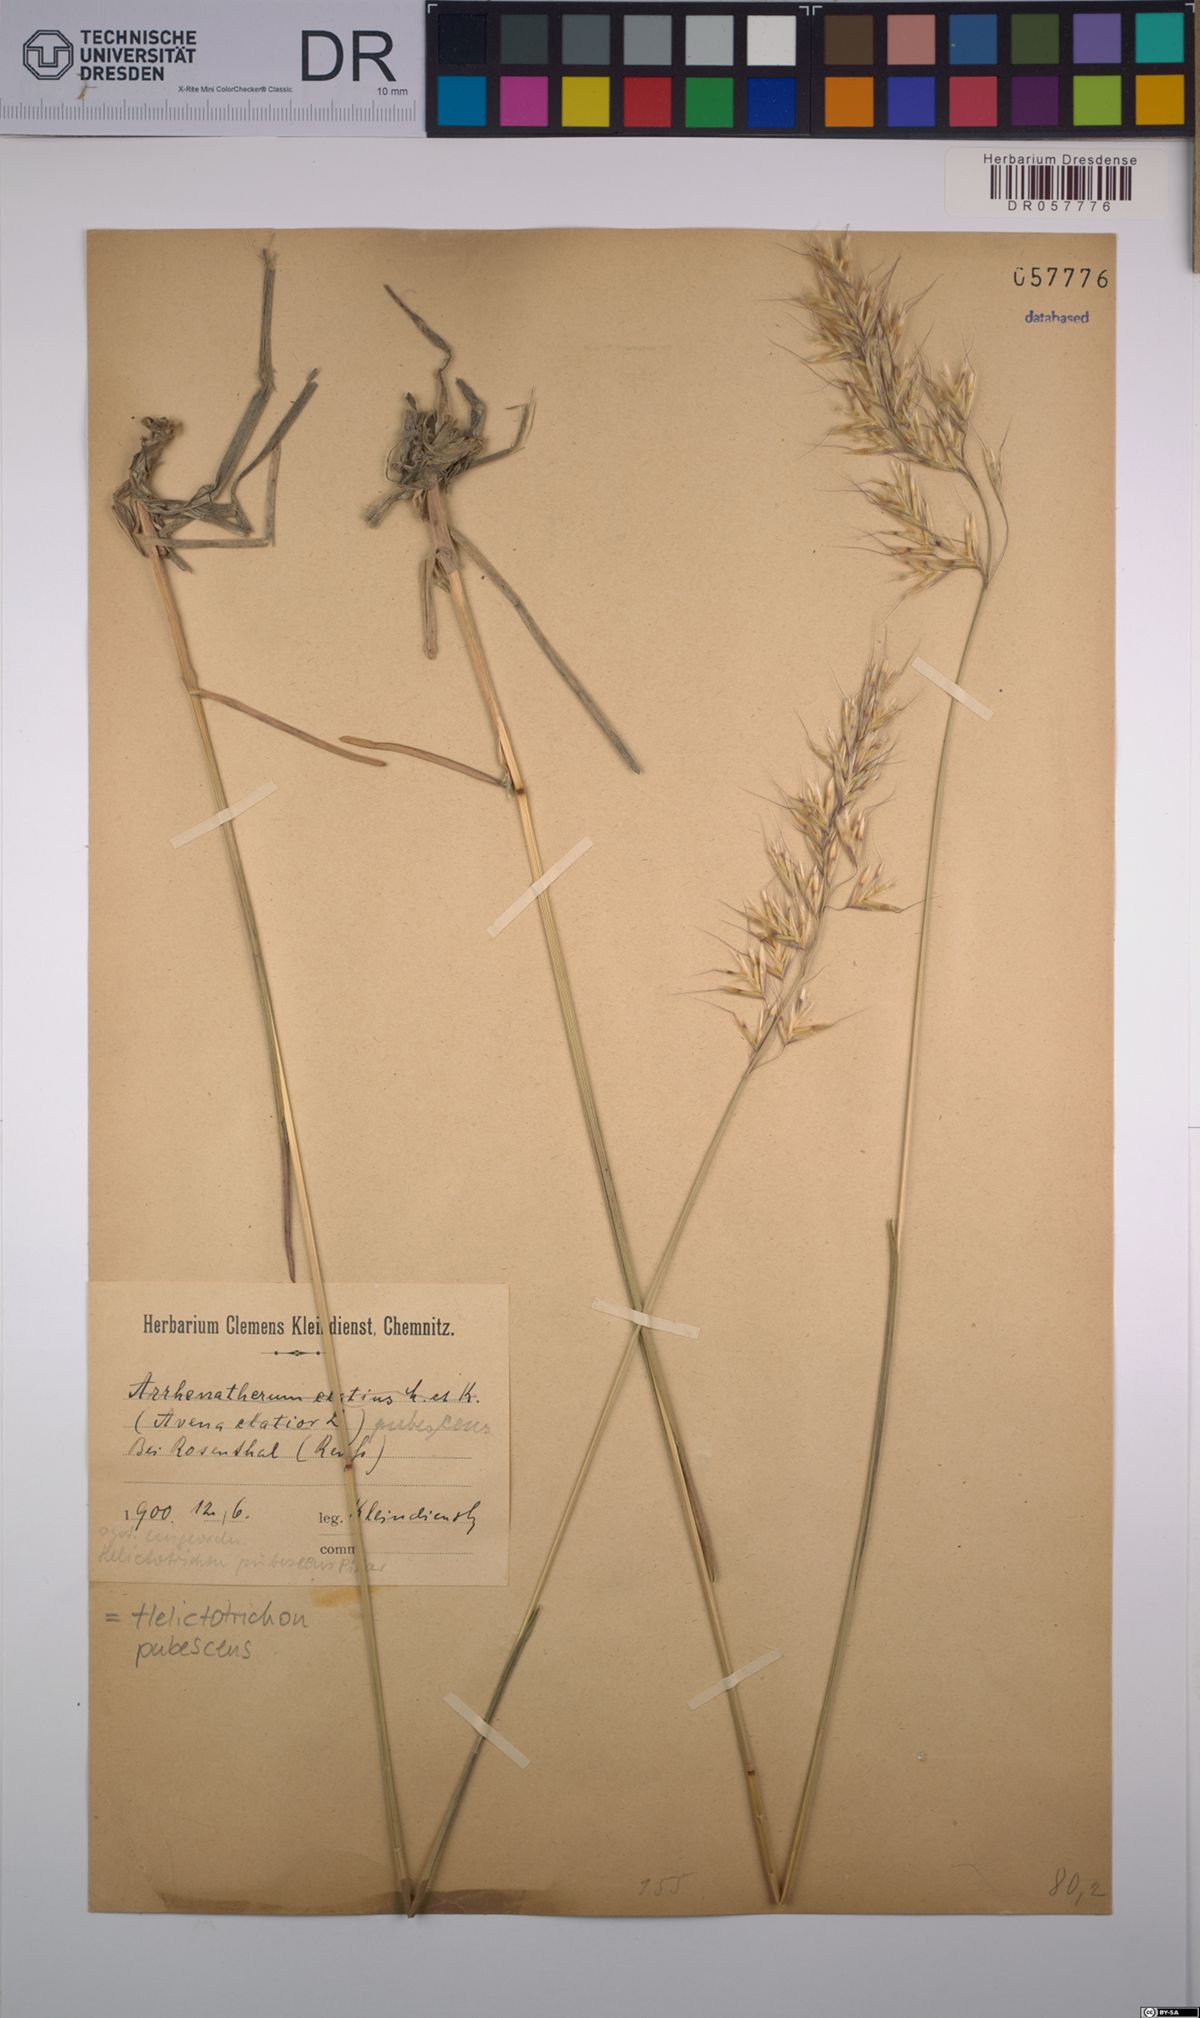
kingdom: Plantae
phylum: Tracheophyta
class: Liliopsida
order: Poales
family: Poaceae
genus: Avenula
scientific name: Avenula pubescens
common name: Downy alpine oatgrass
